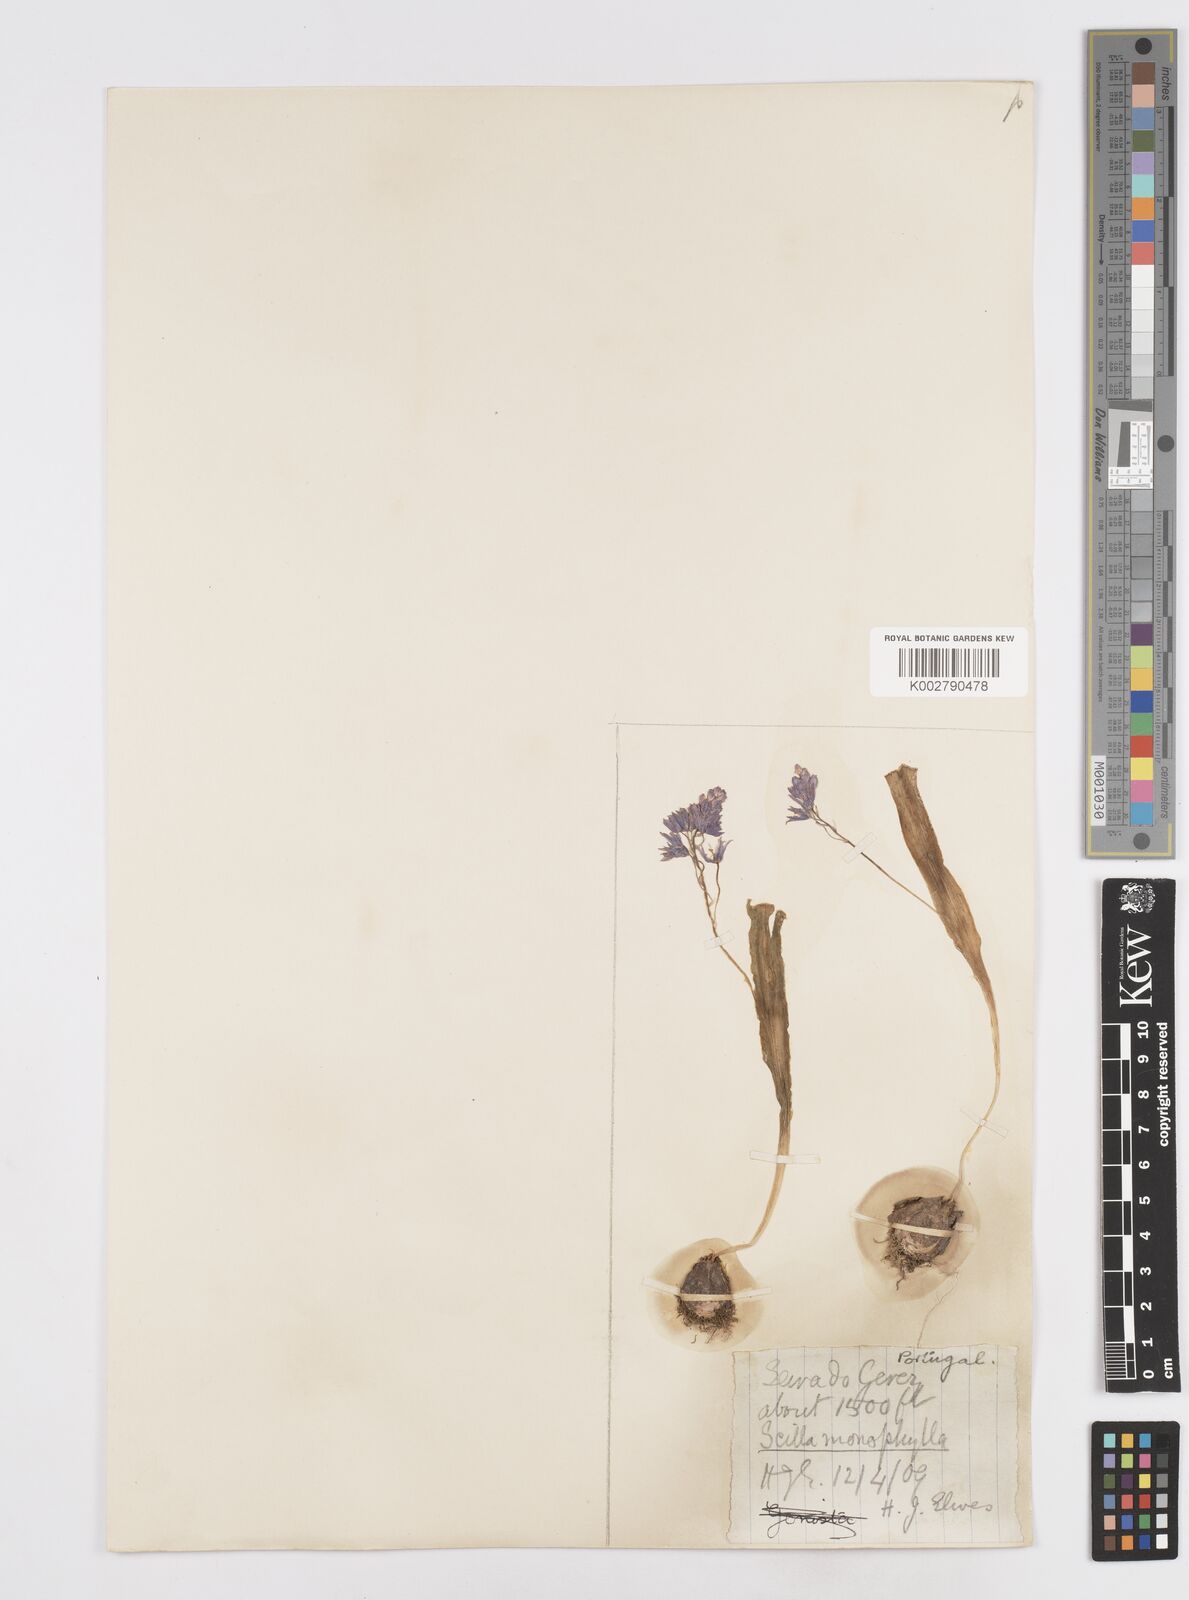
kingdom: Plantae
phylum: Tracheophyta
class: Liliopsida
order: Asparagales
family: Asparagaceae
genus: Scilla
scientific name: Scilla monophyllos
